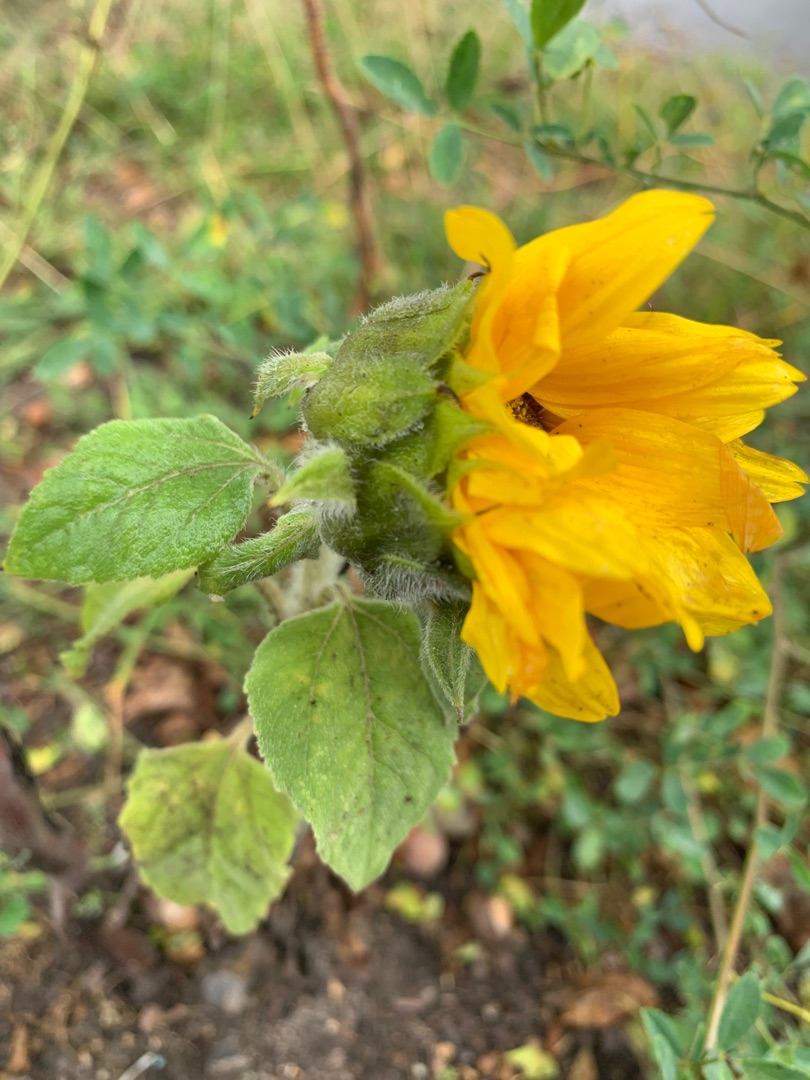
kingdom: Plantae
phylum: Tracheophyta
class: Magnoliopsida
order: Asterales
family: Asteraceae
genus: Helianthus
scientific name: Helianthus annuus
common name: Solsikke
